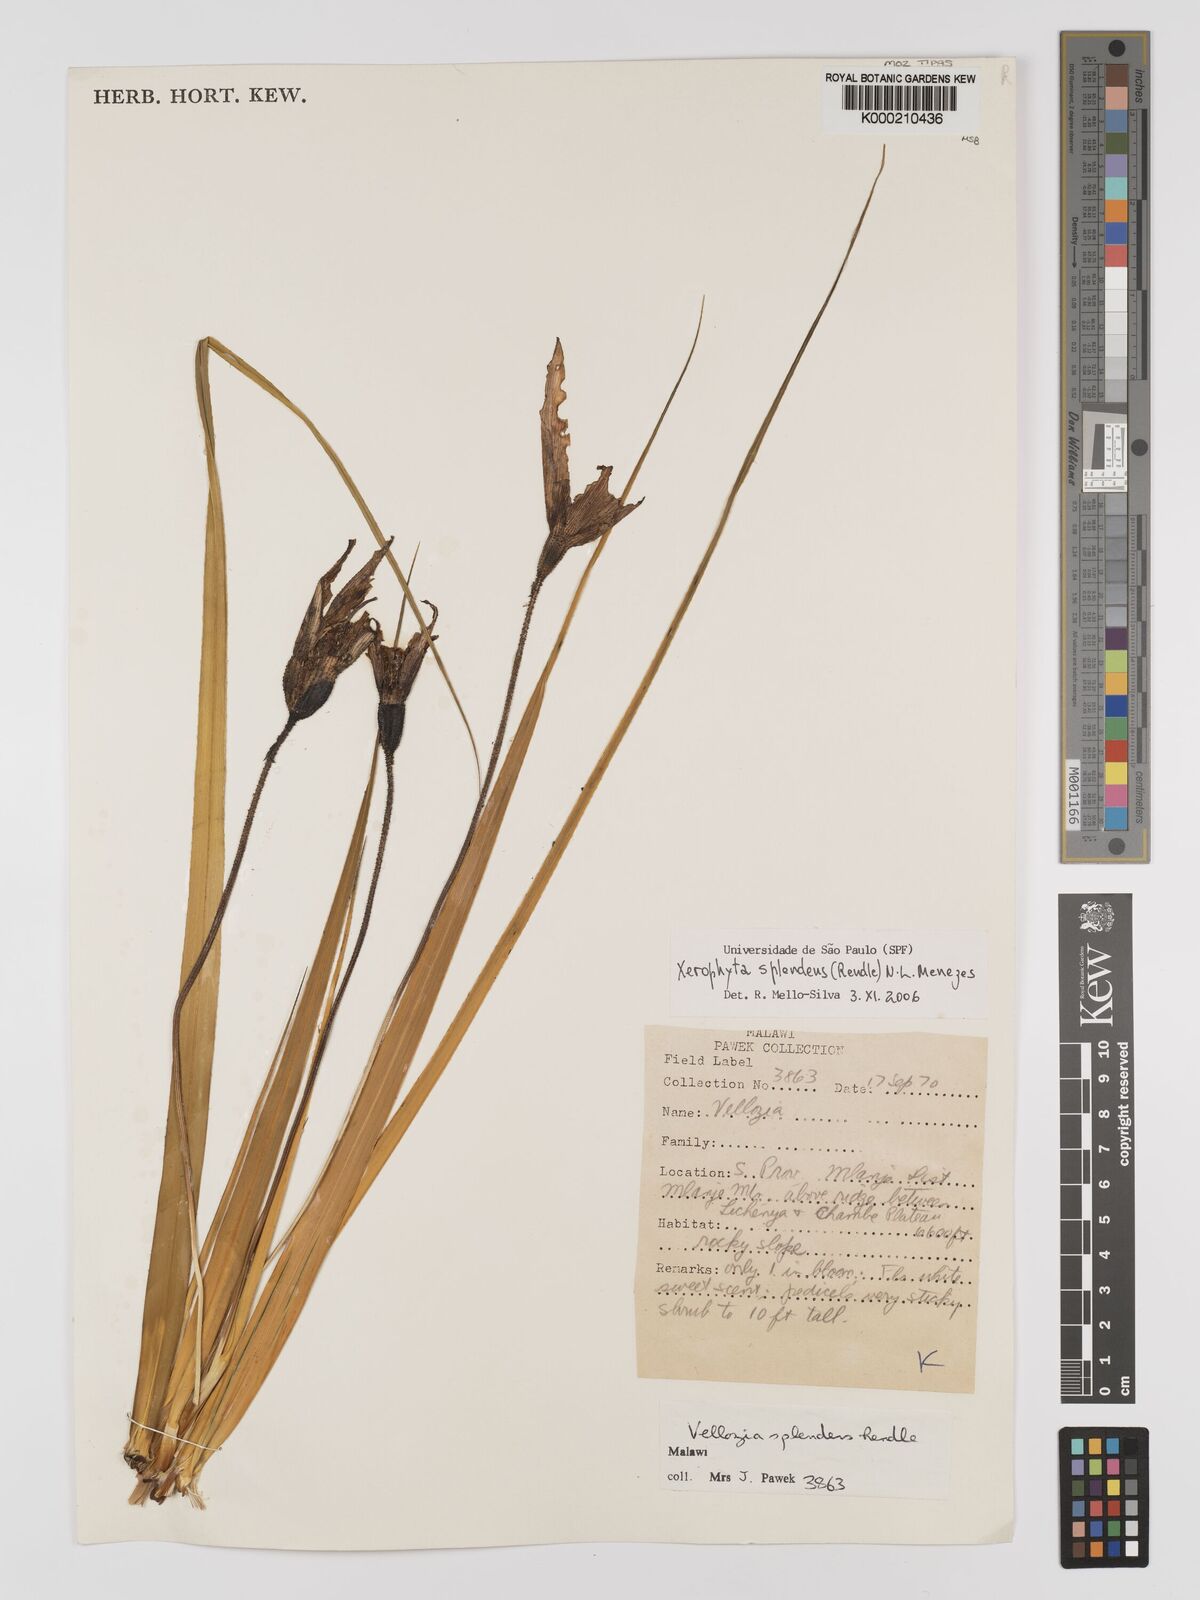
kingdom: Plantae
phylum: Tracheophyta
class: Liliopsida
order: Pandanales
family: Velloziaceae
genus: Xerophyta
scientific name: Xerophyta splendens
